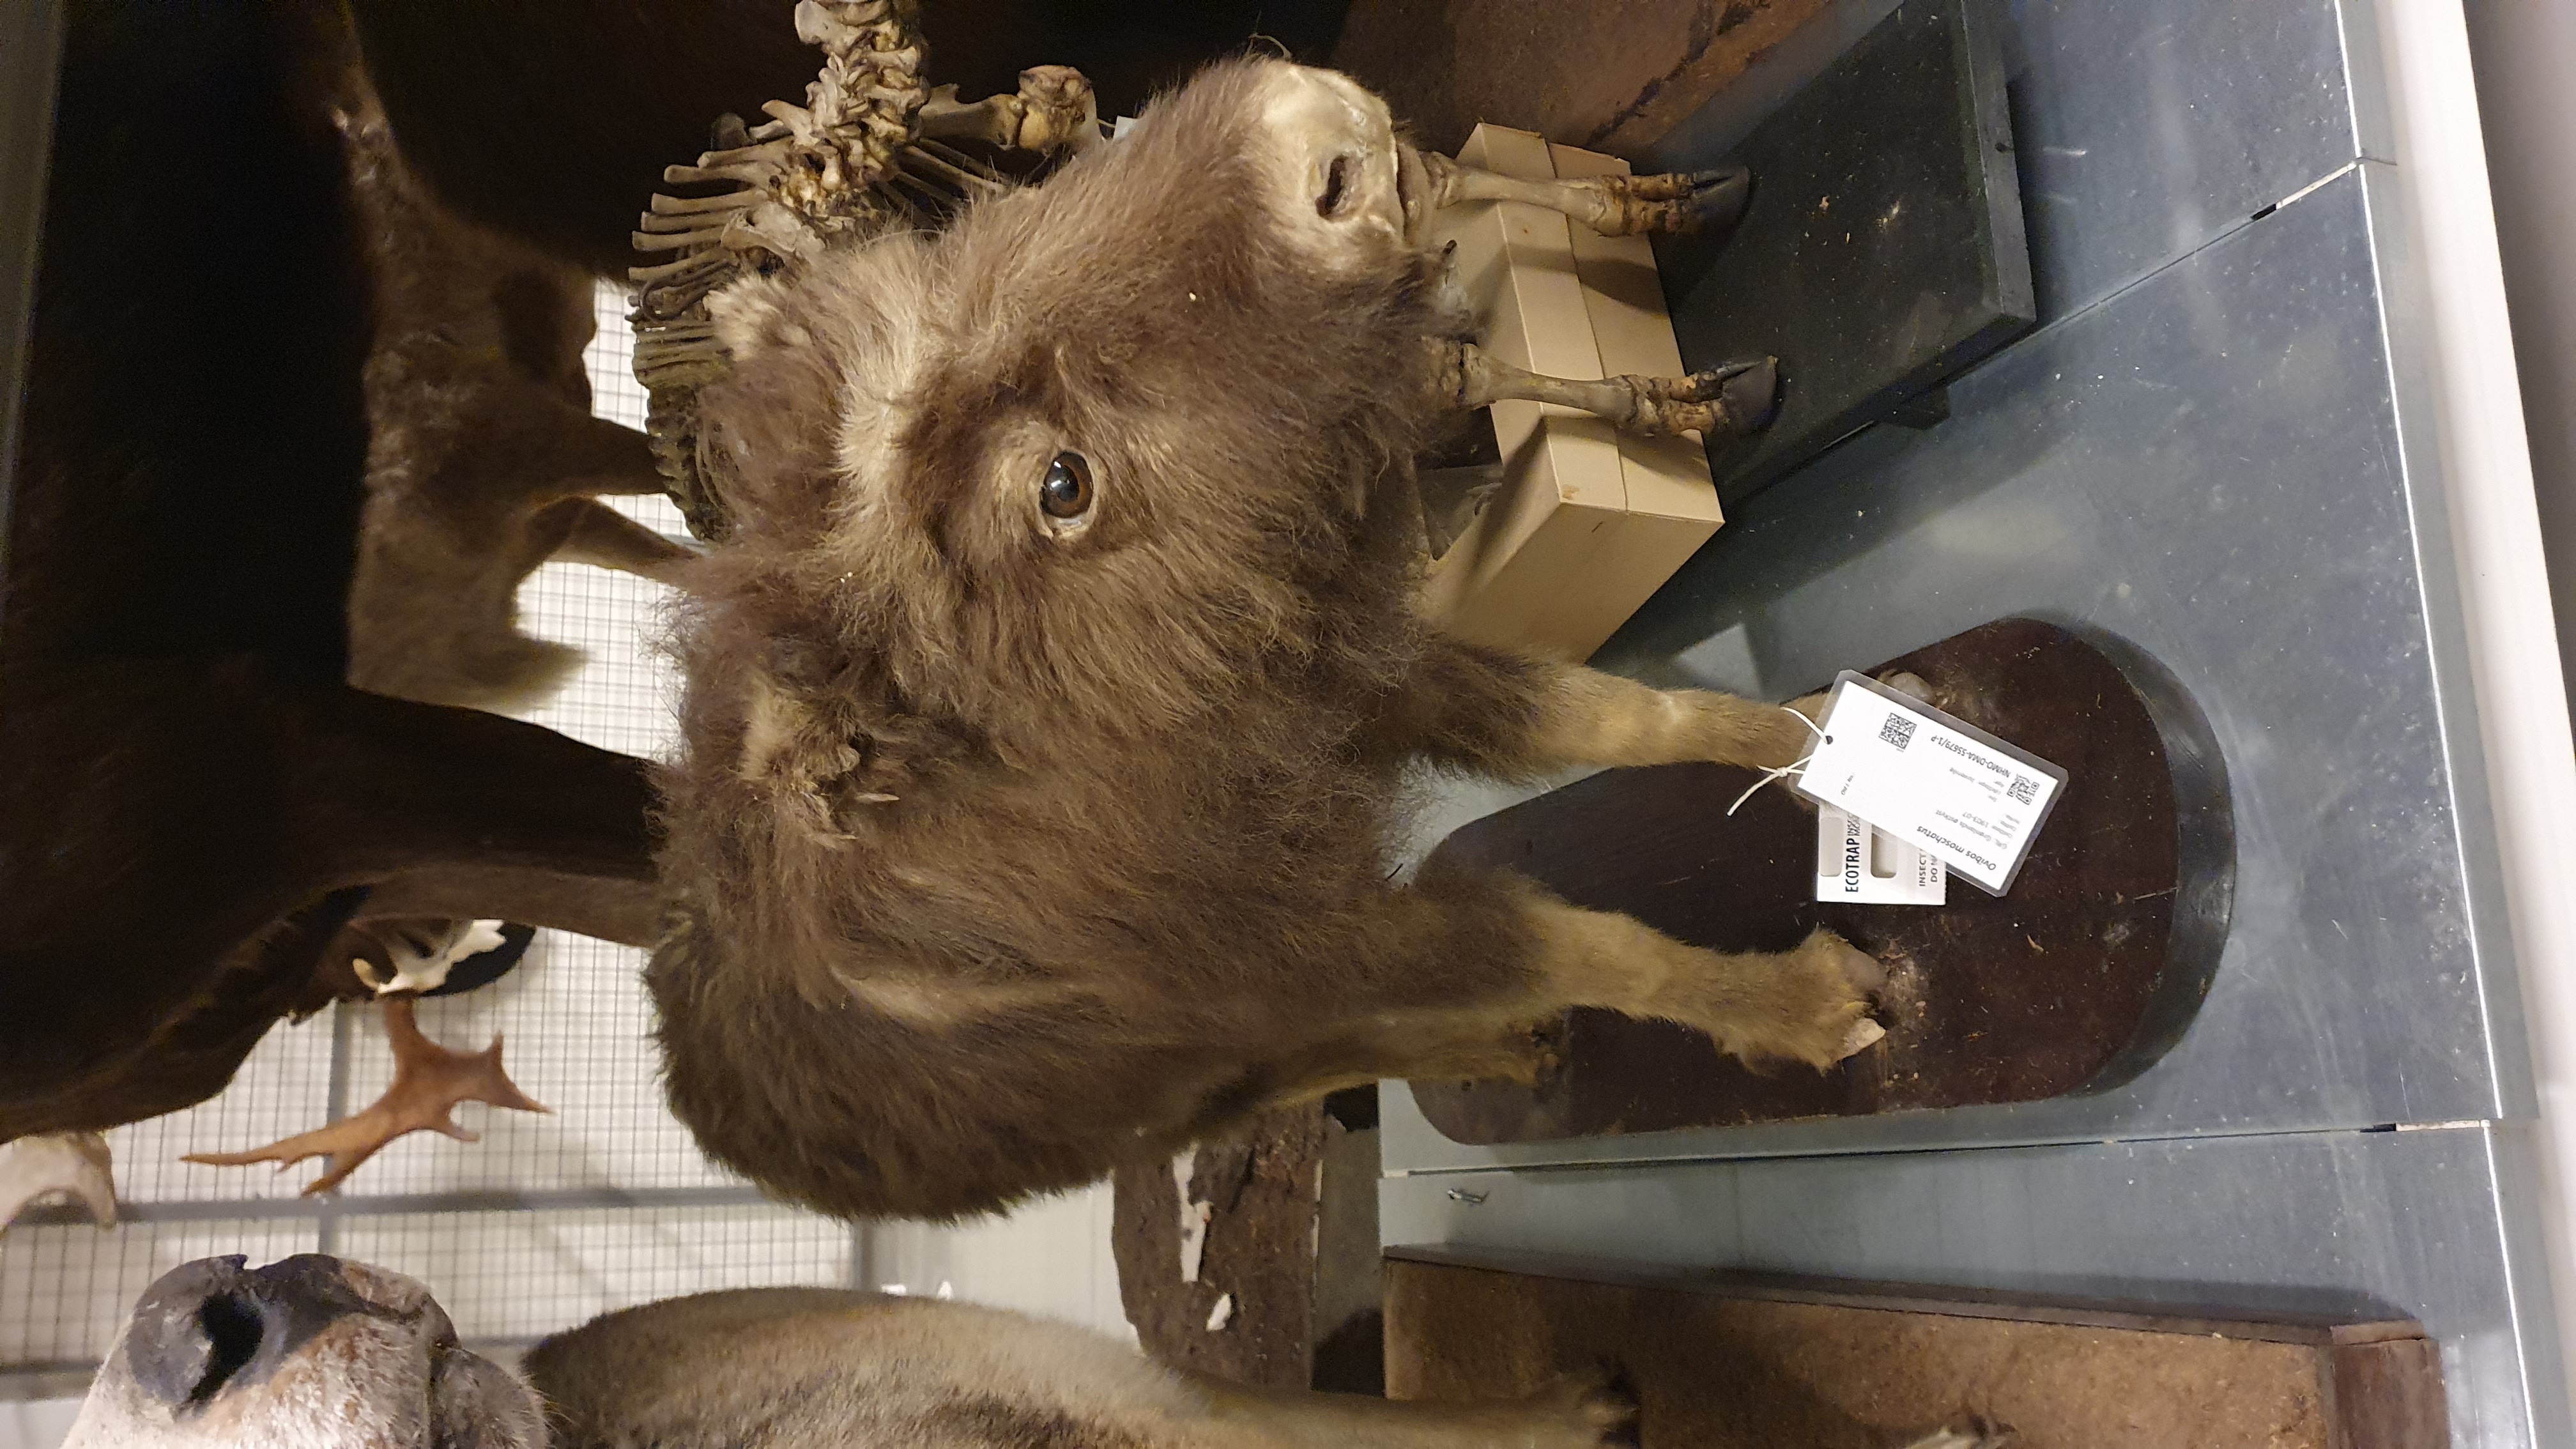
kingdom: Animalia
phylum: Chordata
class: Mammalia
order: Artiodactyla
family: Bovidae
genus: Ovibos
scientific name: Ovibos moschatus
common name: Muskox
